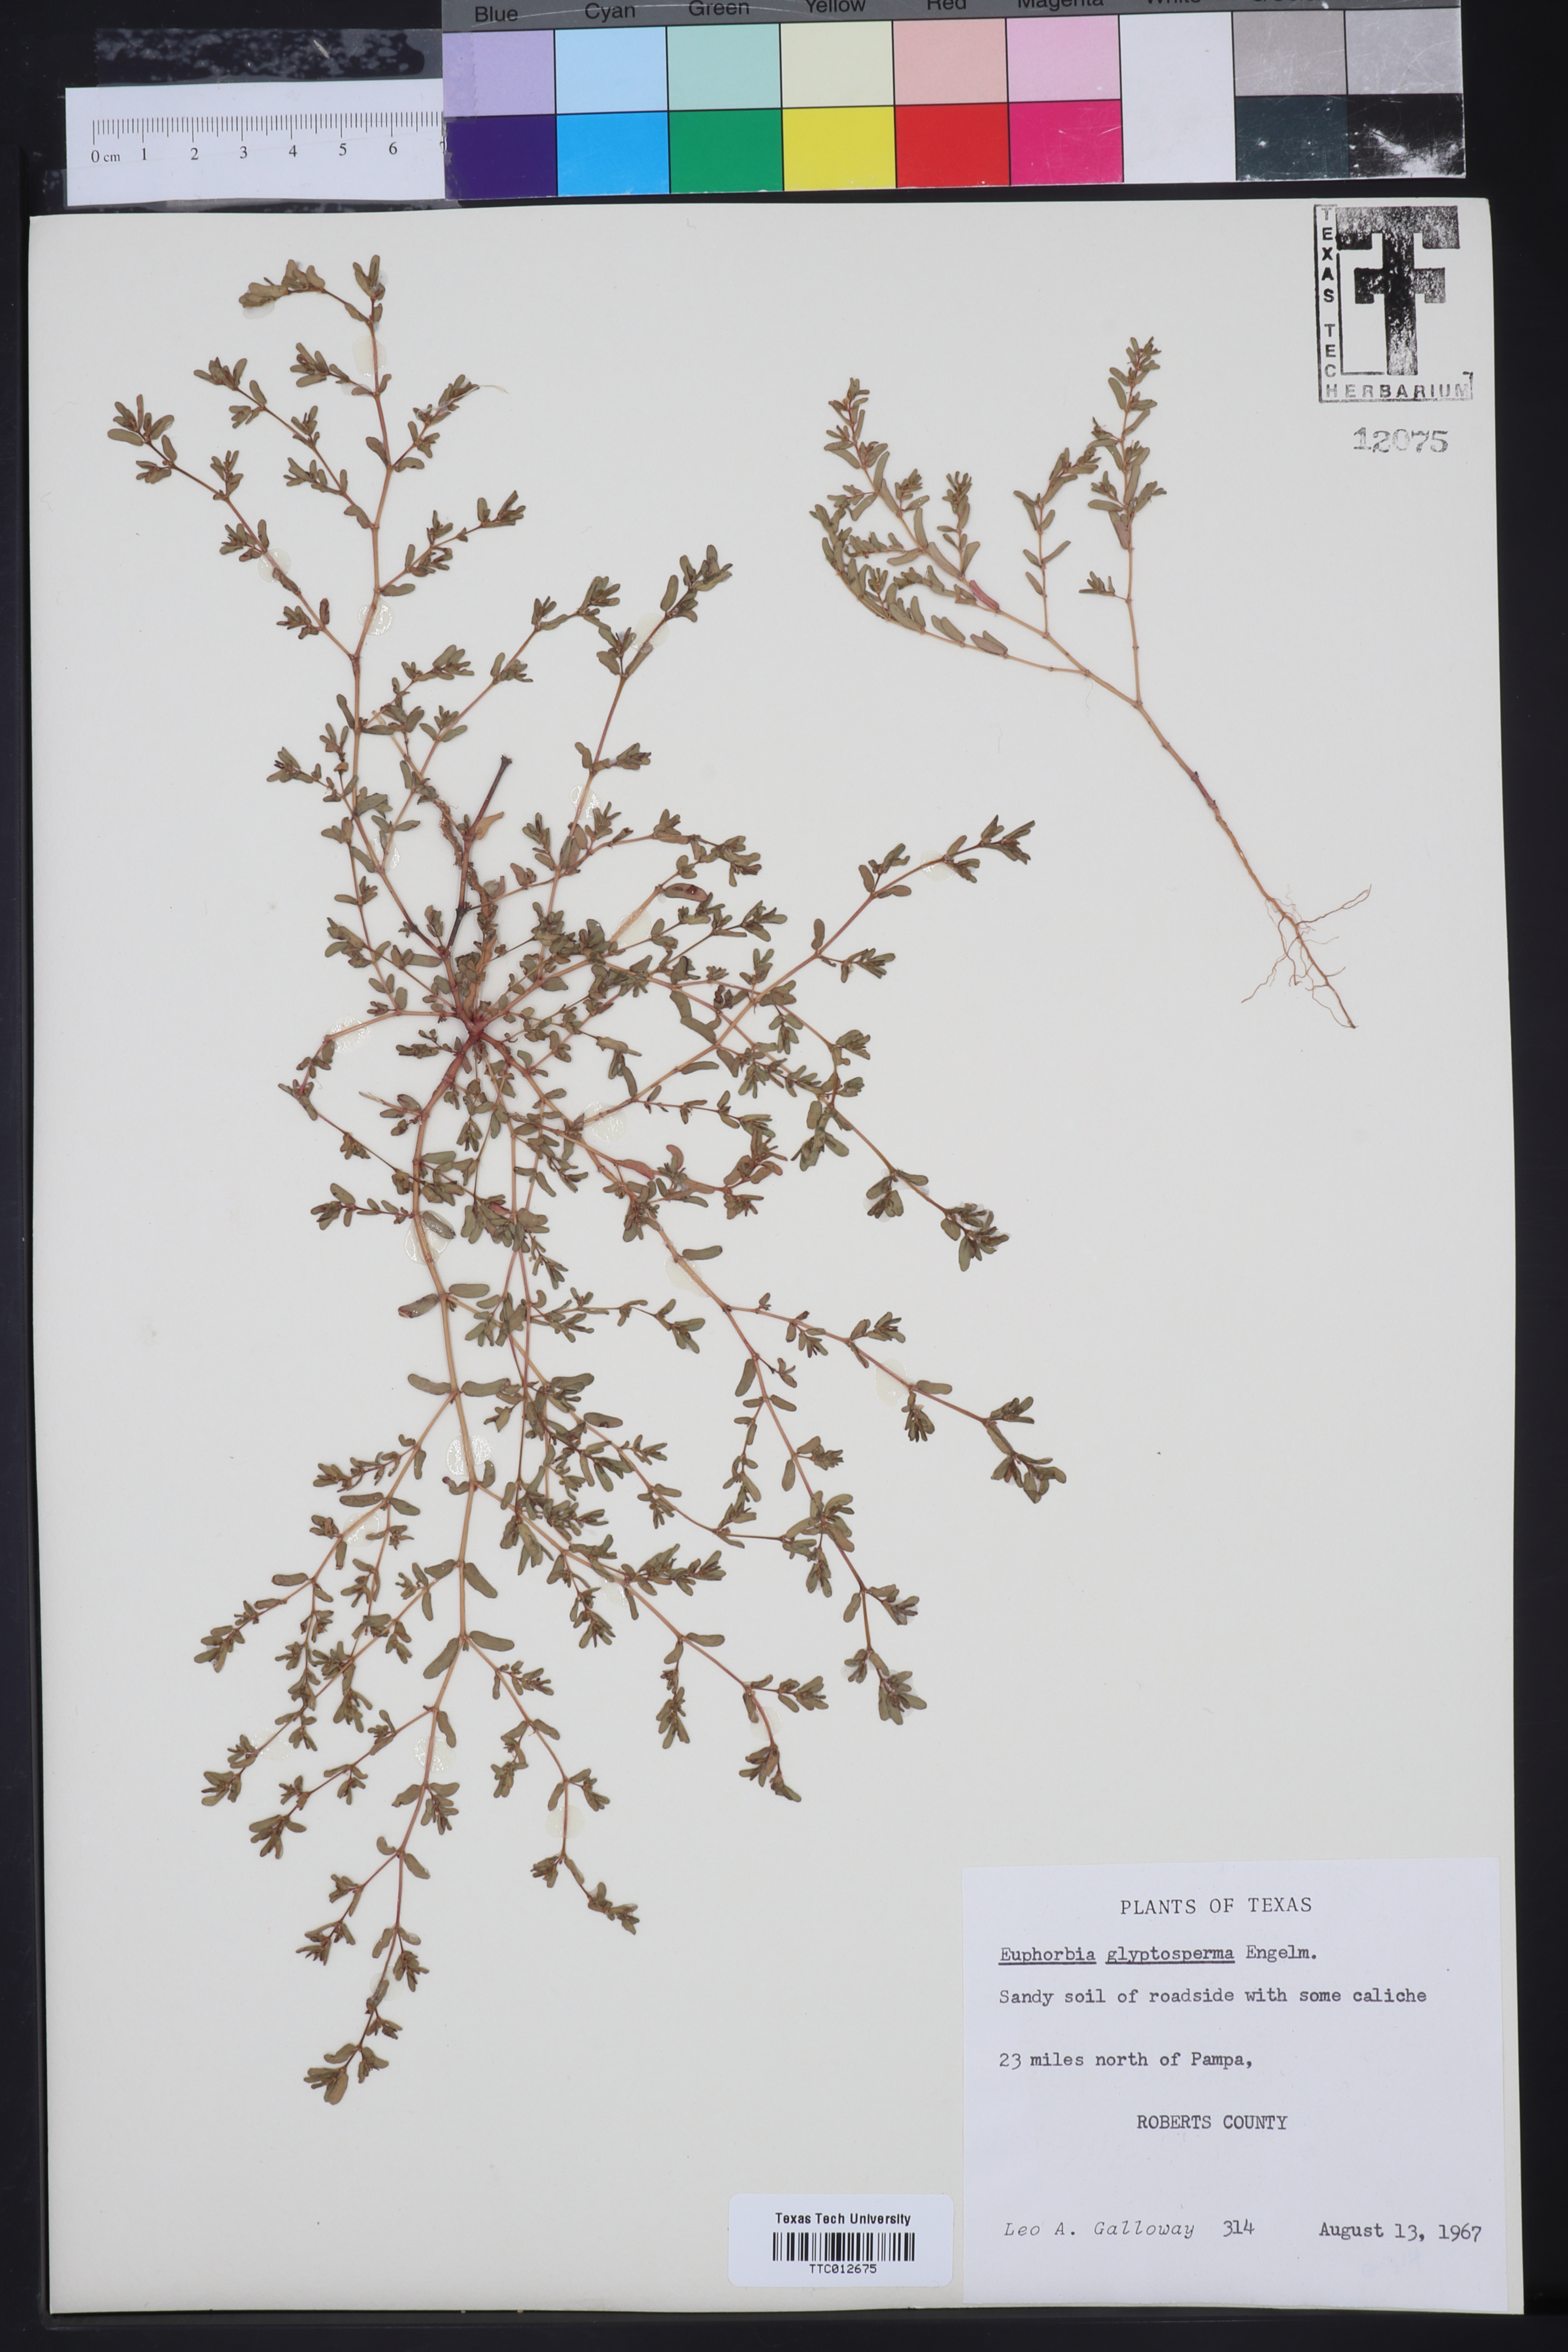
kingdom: Plantae
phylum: Tracheophyta
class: Magnoliopsida
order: Malpighiales
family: Euphorbiaceae
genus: Euphorbia
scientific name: Euphorbia glyptosperma
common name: Corrugate-seeded spurge
